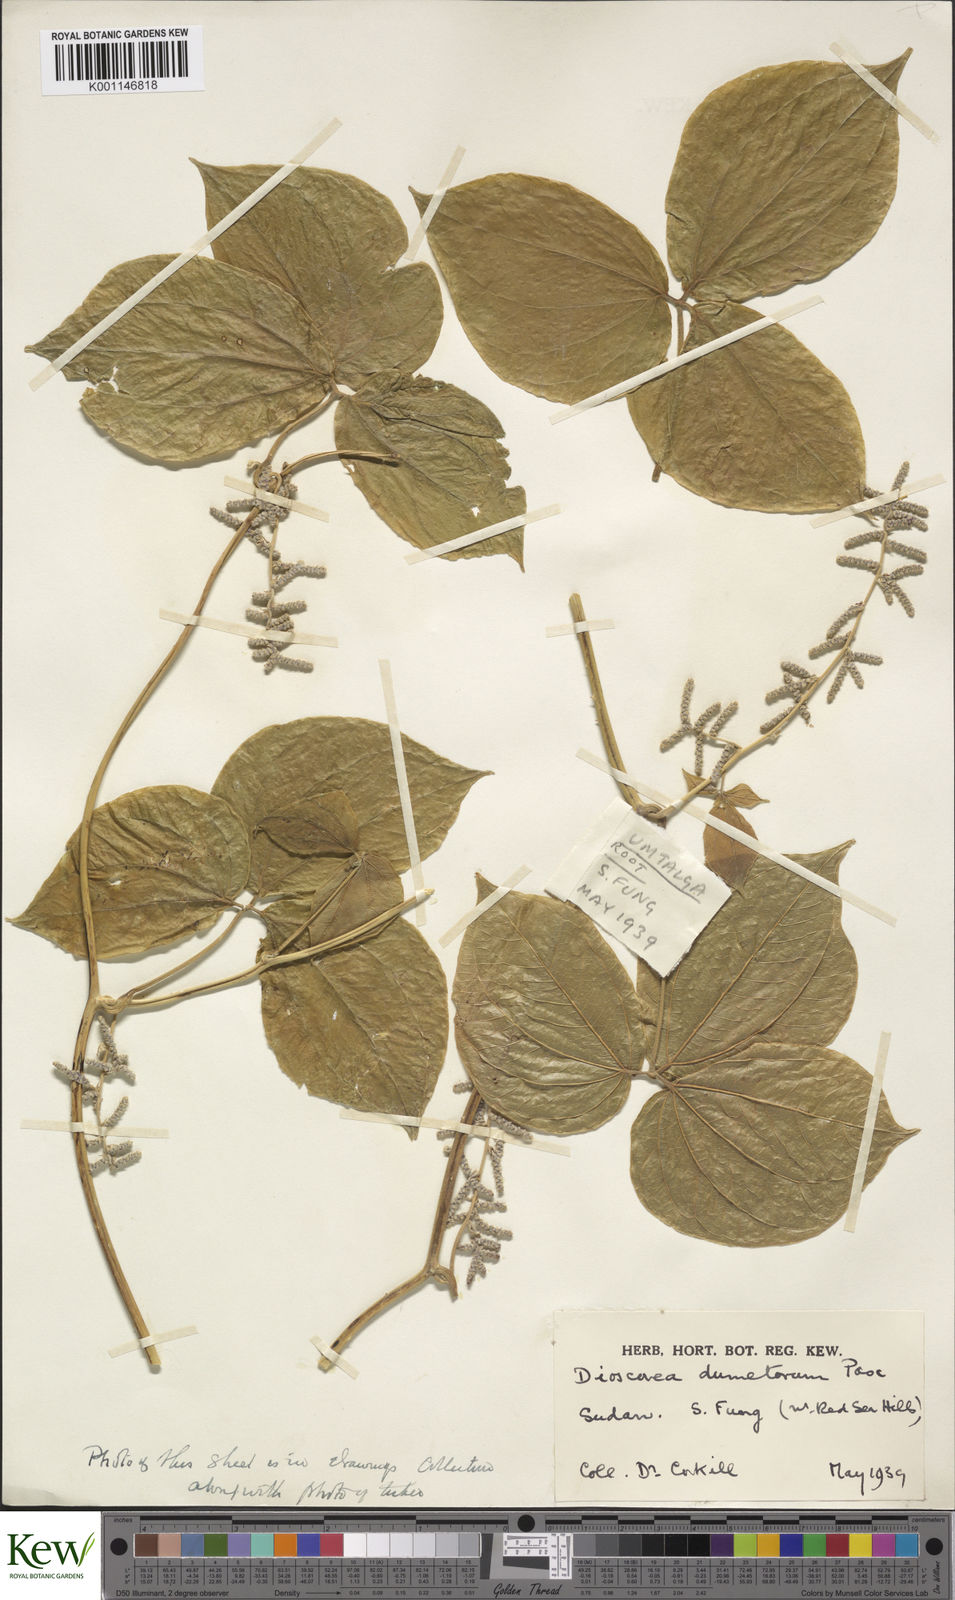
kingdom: Plantae
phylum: Tracheophyta
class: Liliopsida
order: Dioscoreales
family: Dioscoreaceae
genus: Dioscorea
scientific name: Dioscorea dumetorum
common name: African bitter yam
